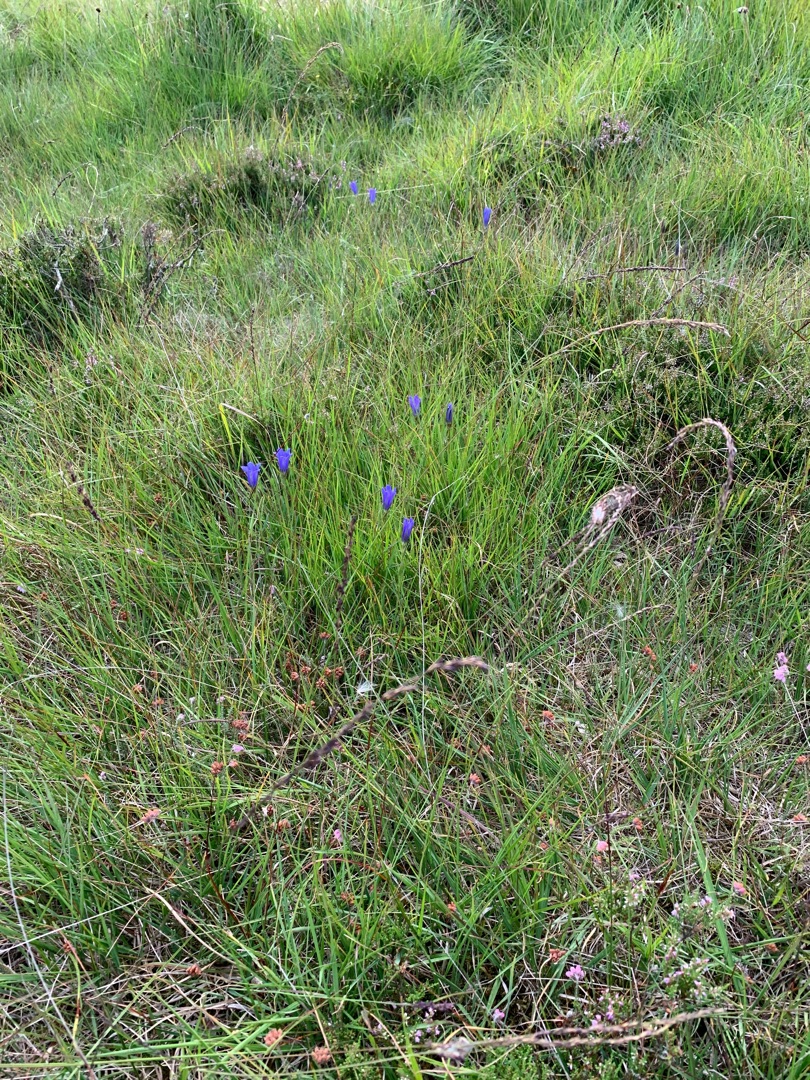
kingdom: Plantae
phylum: Tracheophyta
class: Magnoliopsida
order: Gentianales
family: Gentianaceae
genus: Gentiana
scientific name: Gentiana pneumonanthe
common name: Klokke-ensian
